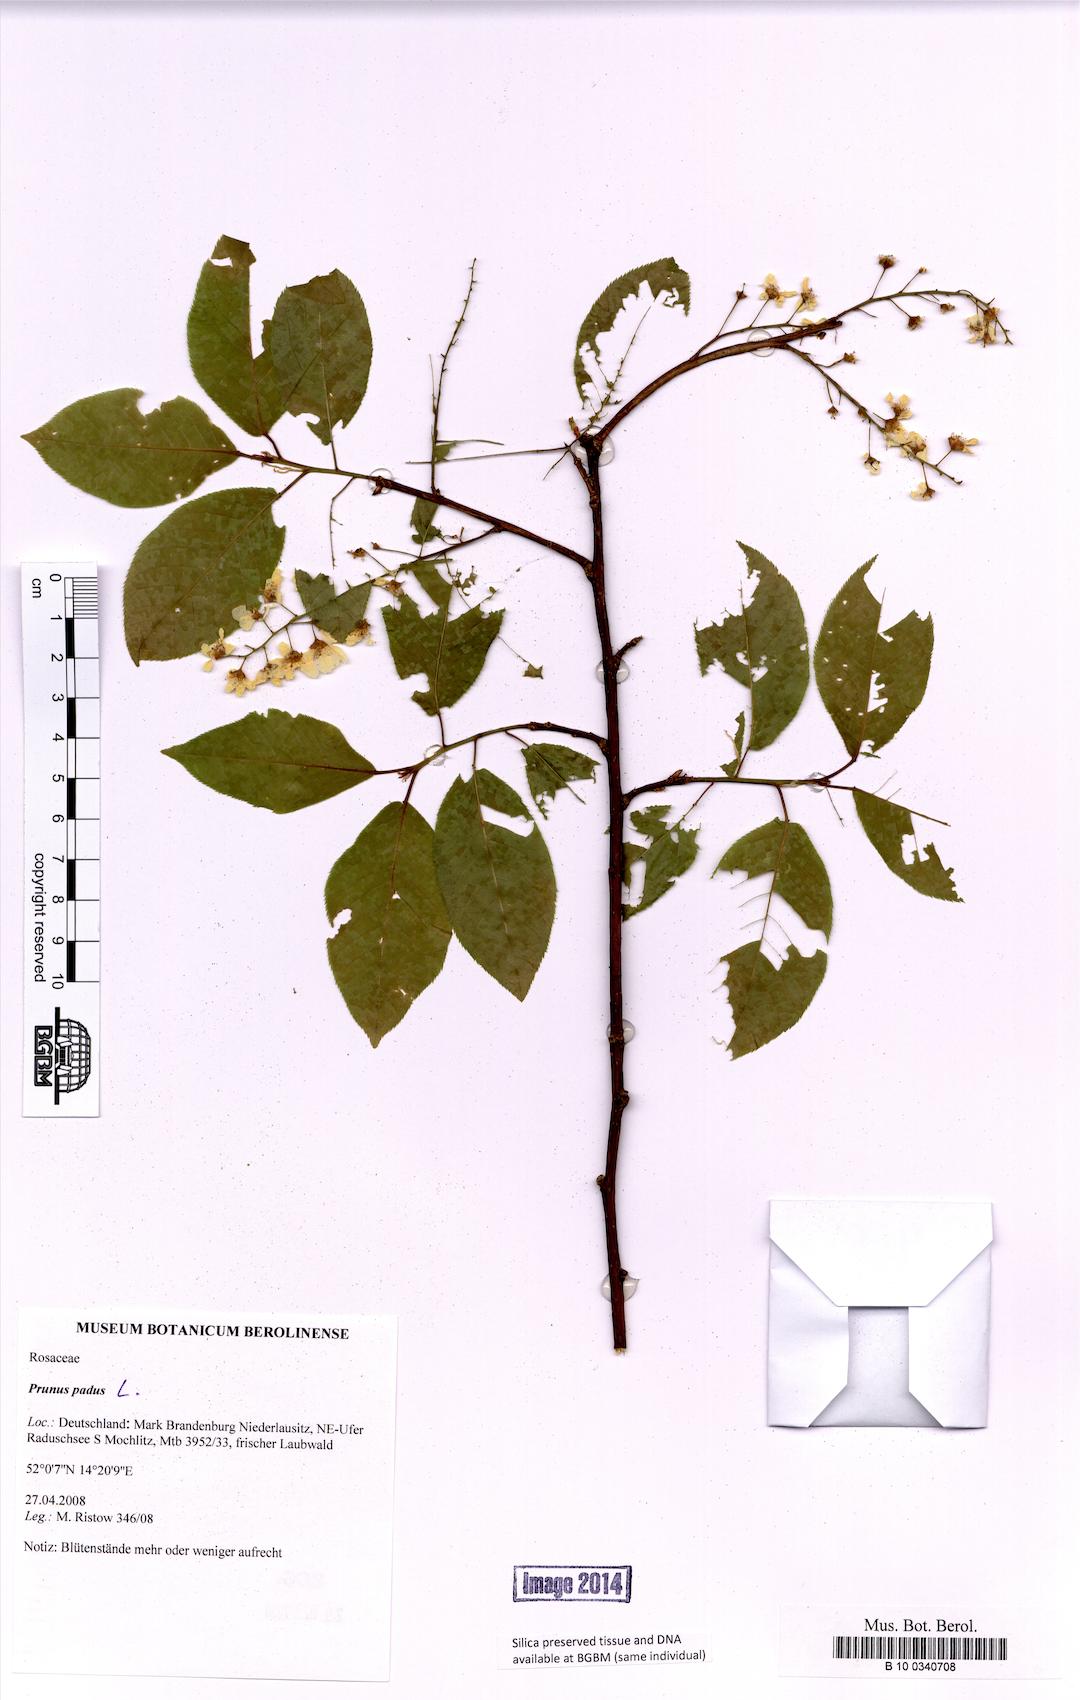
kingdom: Plantae
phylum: Tracheophyta
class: Magnoliopsida
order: Rosales
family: Rosaceae
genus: Prunus
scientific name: Prunus padus
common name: Bird cherry
